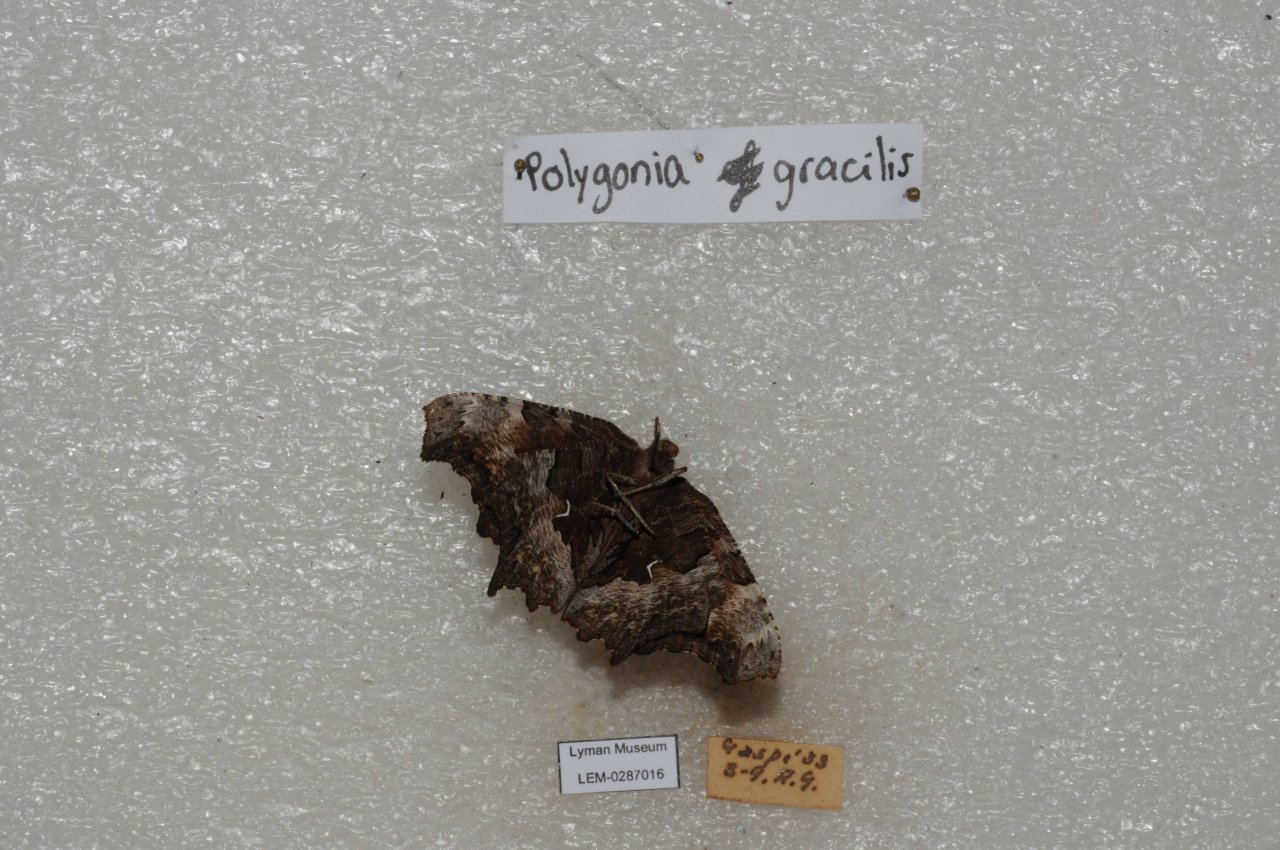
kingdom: Animalia
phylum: Arthropoda
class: Insecta
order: Lepidoptera
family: Nymphalidae
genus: Polygonia
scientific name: Polygonia gracilis
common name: Hoary Comma
